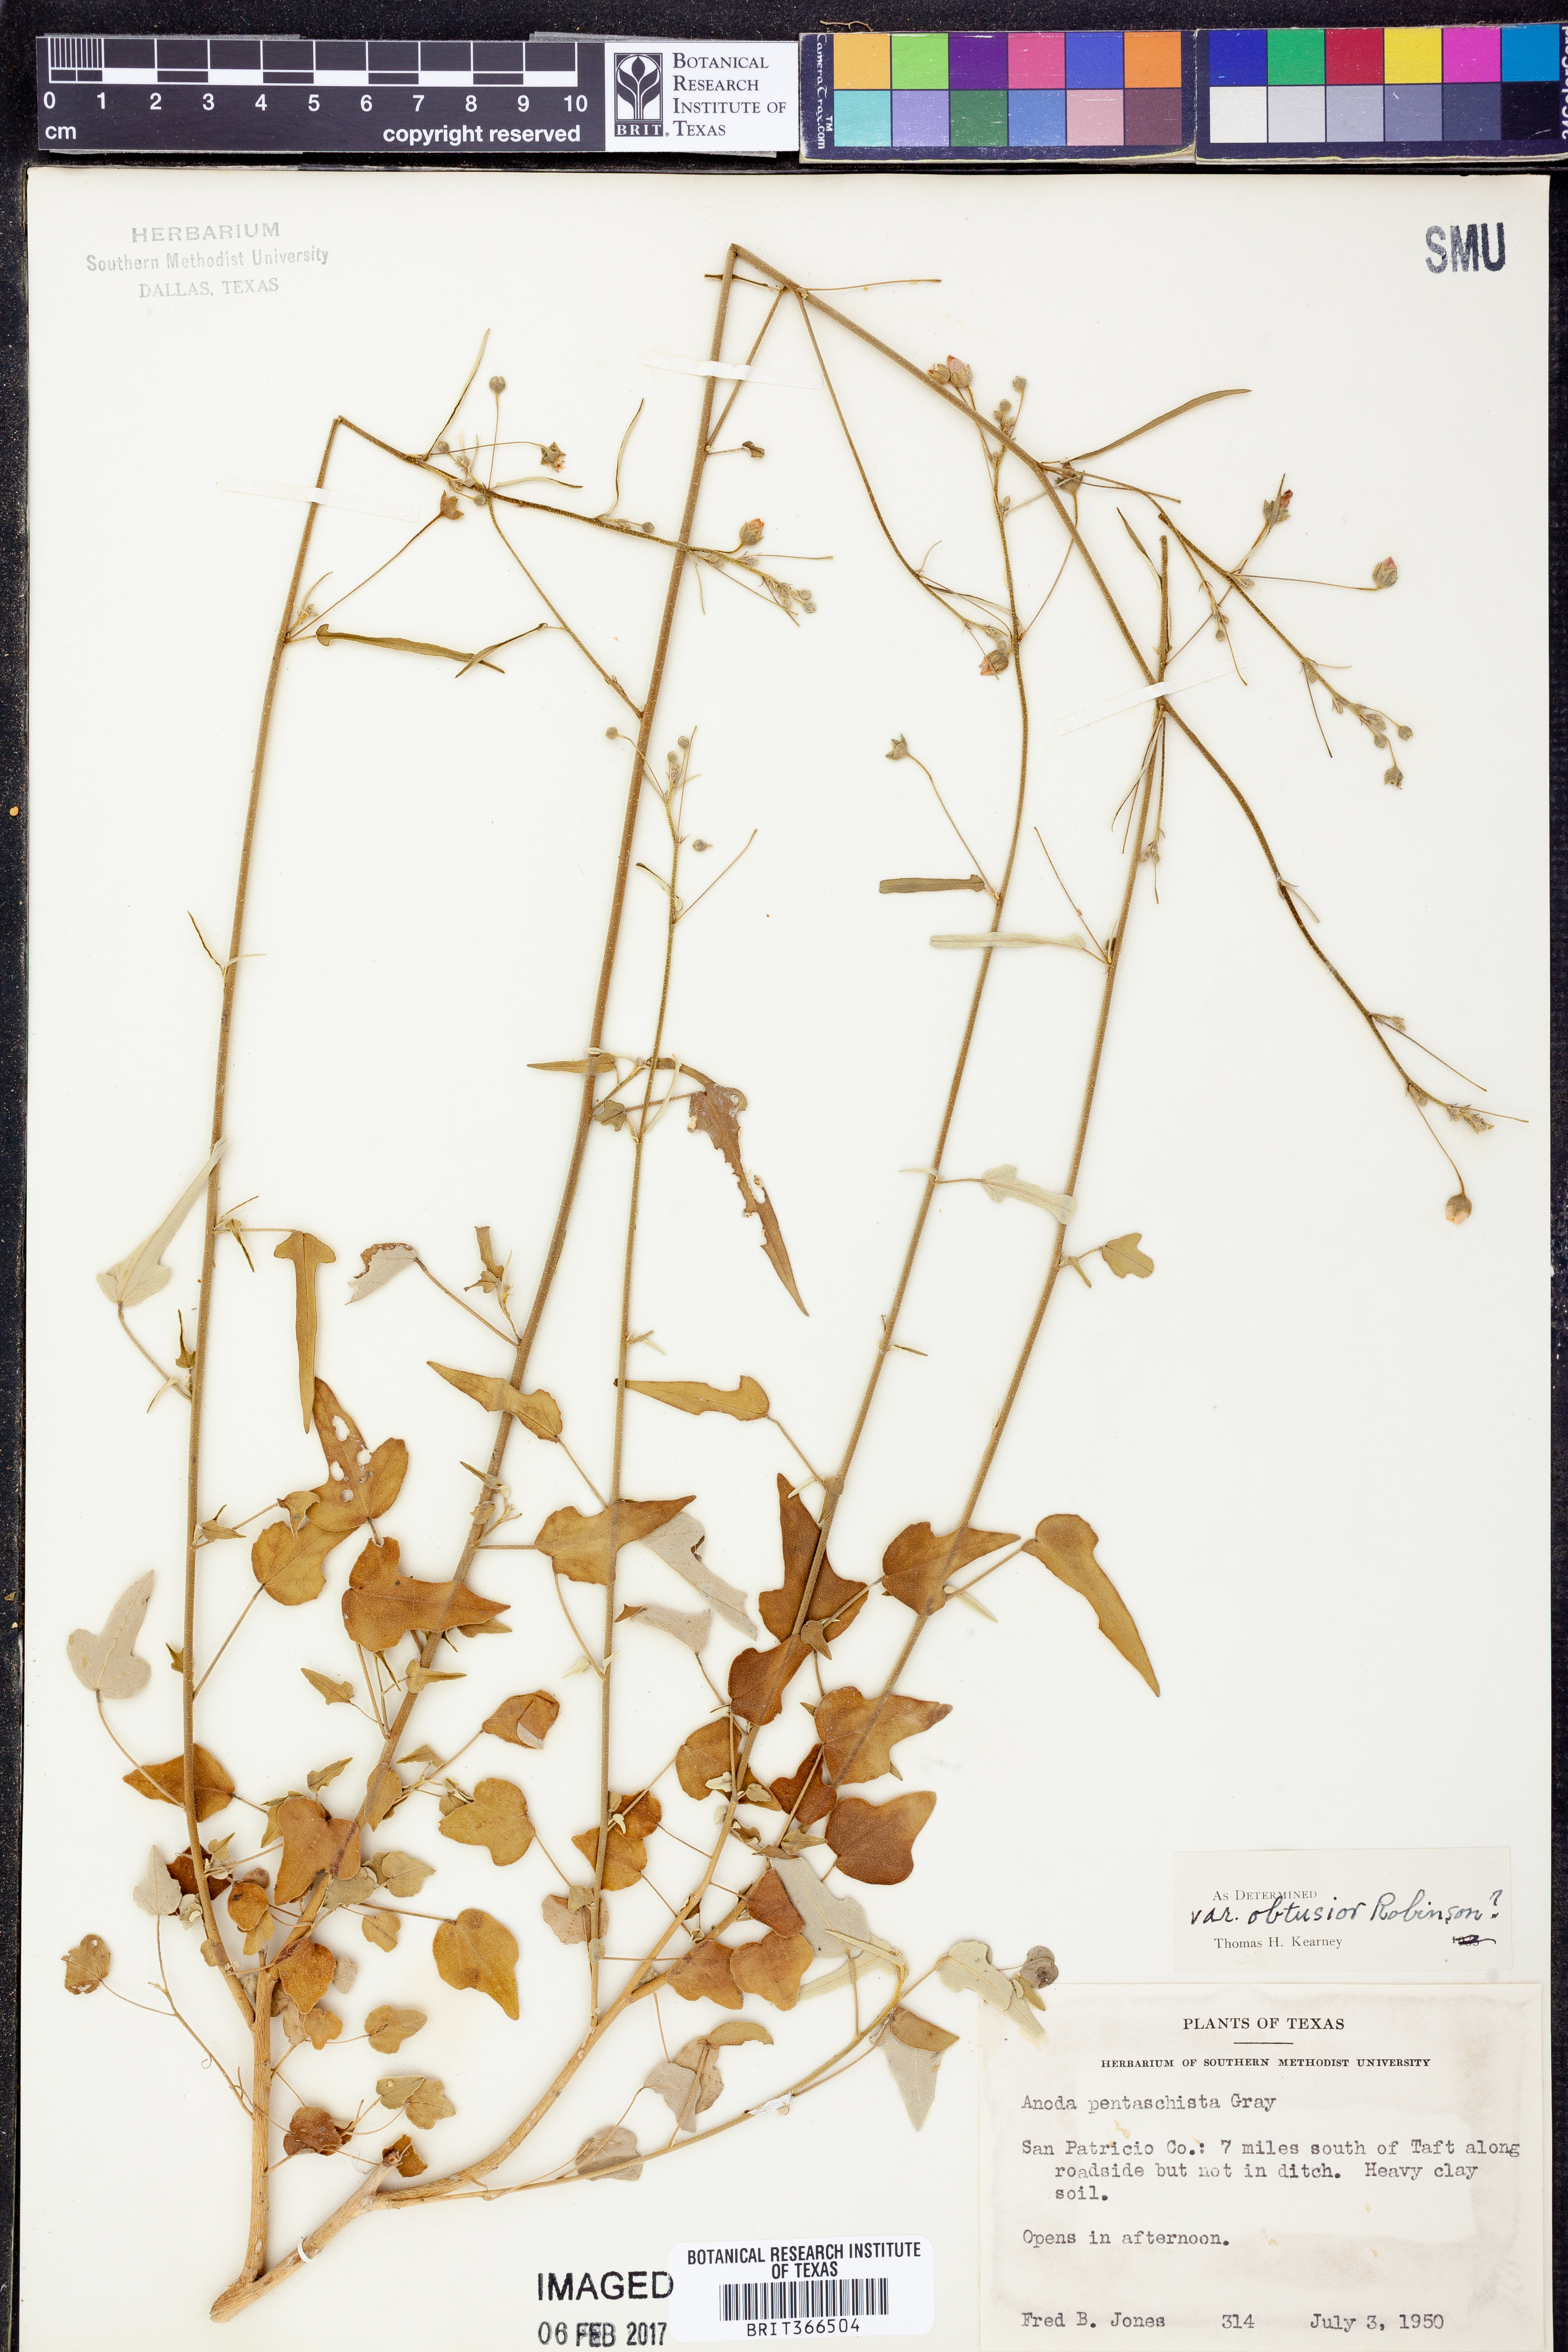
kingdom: Plantae
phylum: Tracheophyta
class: Magnoliopsida
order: Malvales
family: Malvaceae
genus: Anoda
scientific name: Anoda pentaschista
